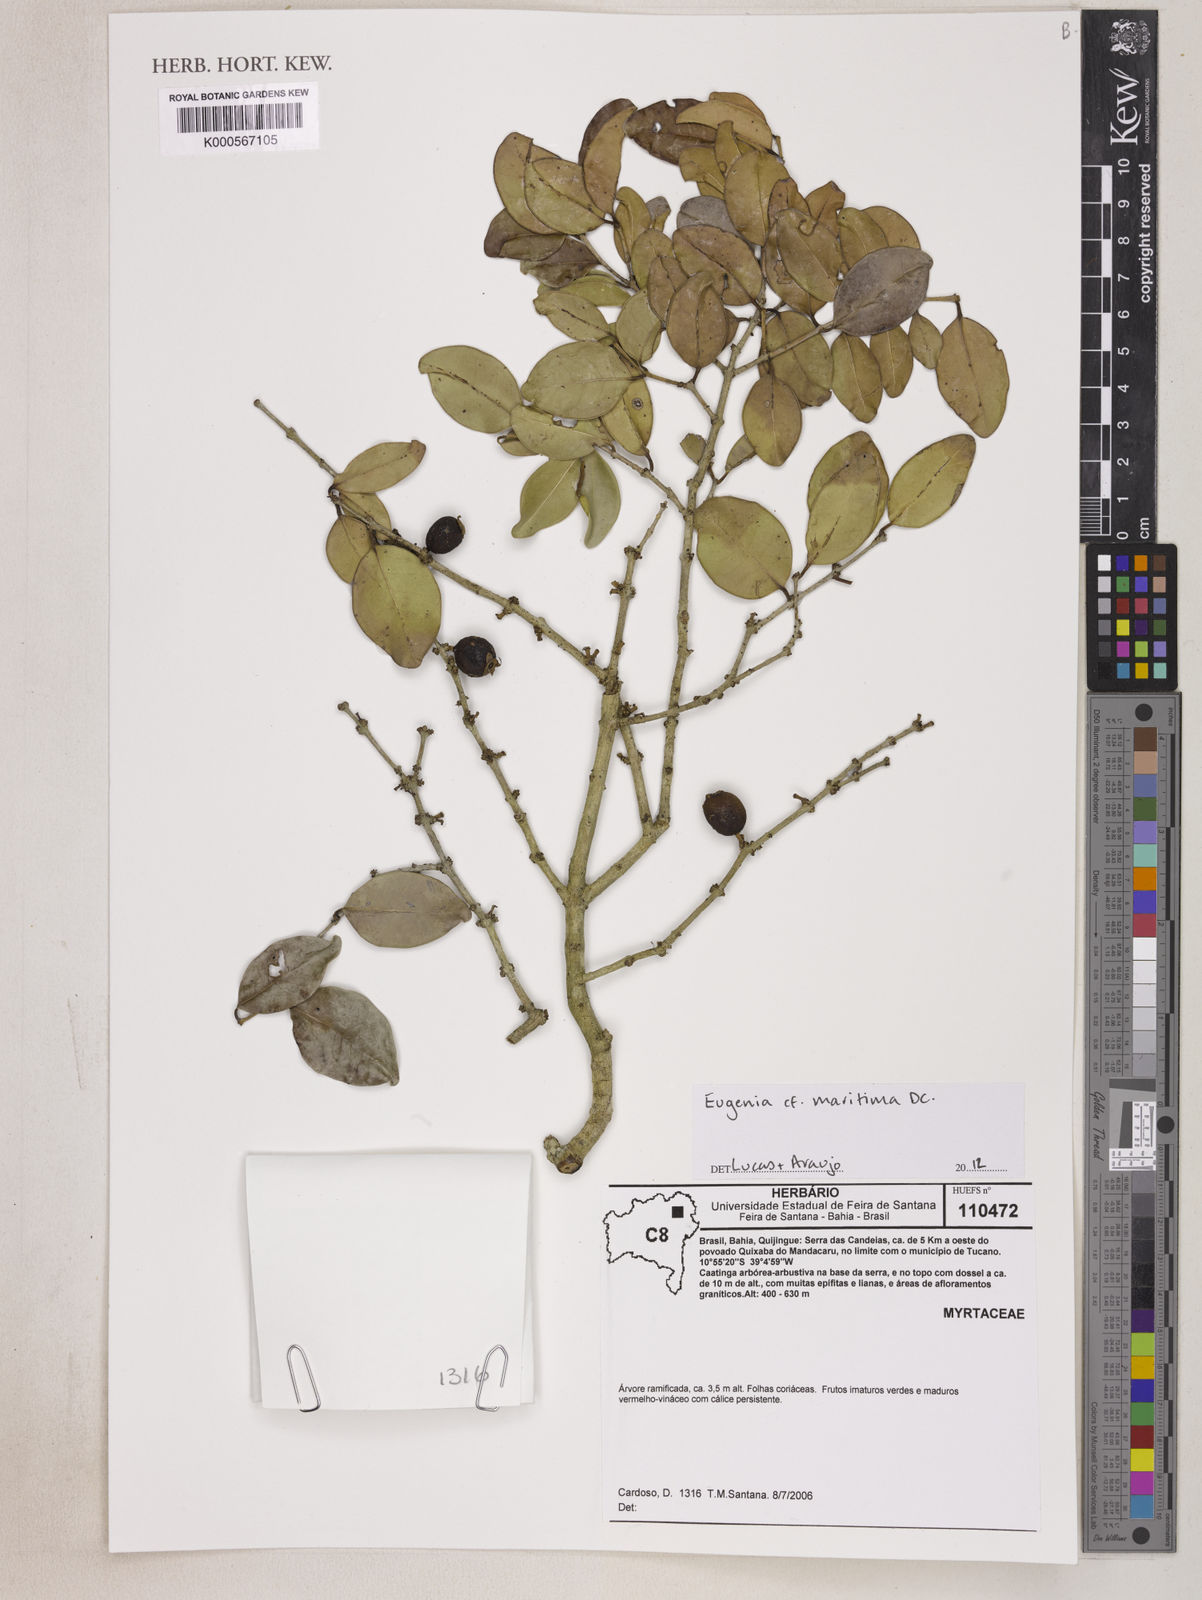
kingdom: Plantae
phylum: Tracheophyta
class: Magnoliopsida
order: Myrtales
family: Myrtaceae
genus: Eugenia
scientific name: Eugenia maritima
